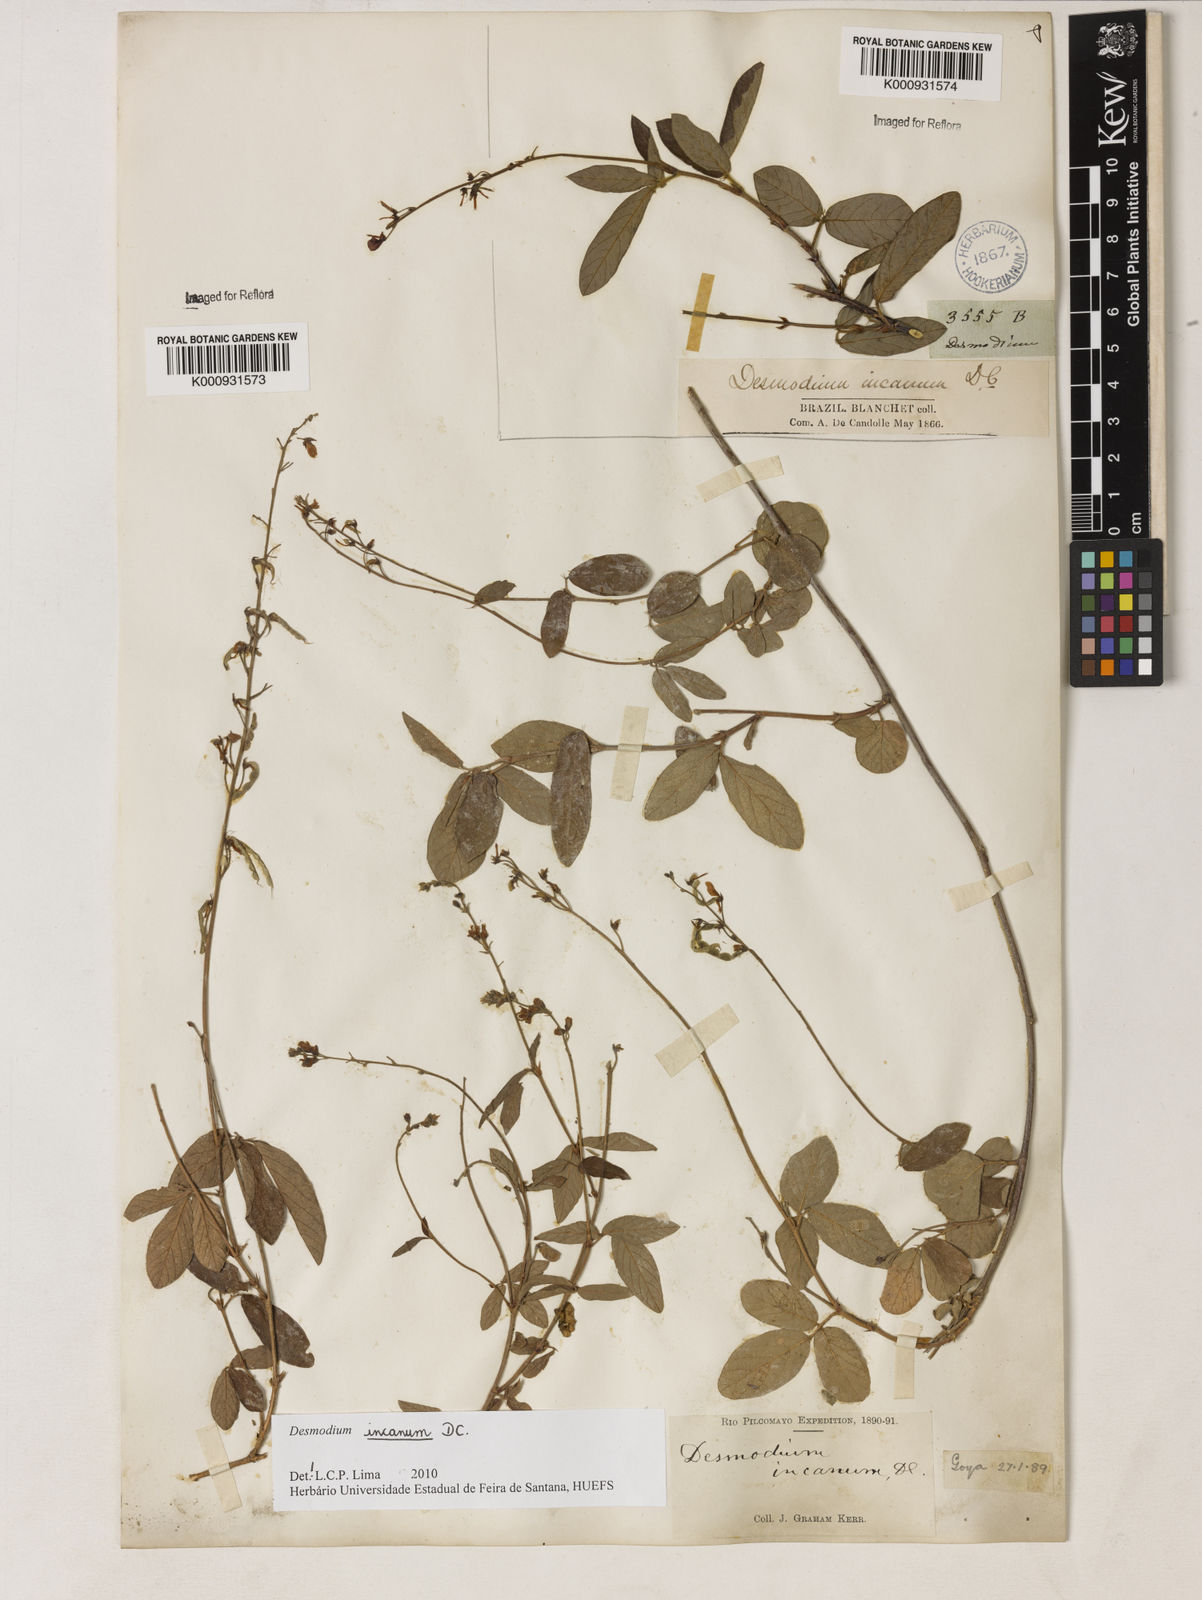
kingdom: Plantae
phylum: Tracheophyta
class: Magnoliopsida
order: Fabales
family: Fabaceae
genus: Desmodium
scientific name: Desmodium incanum
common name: Tickclover
